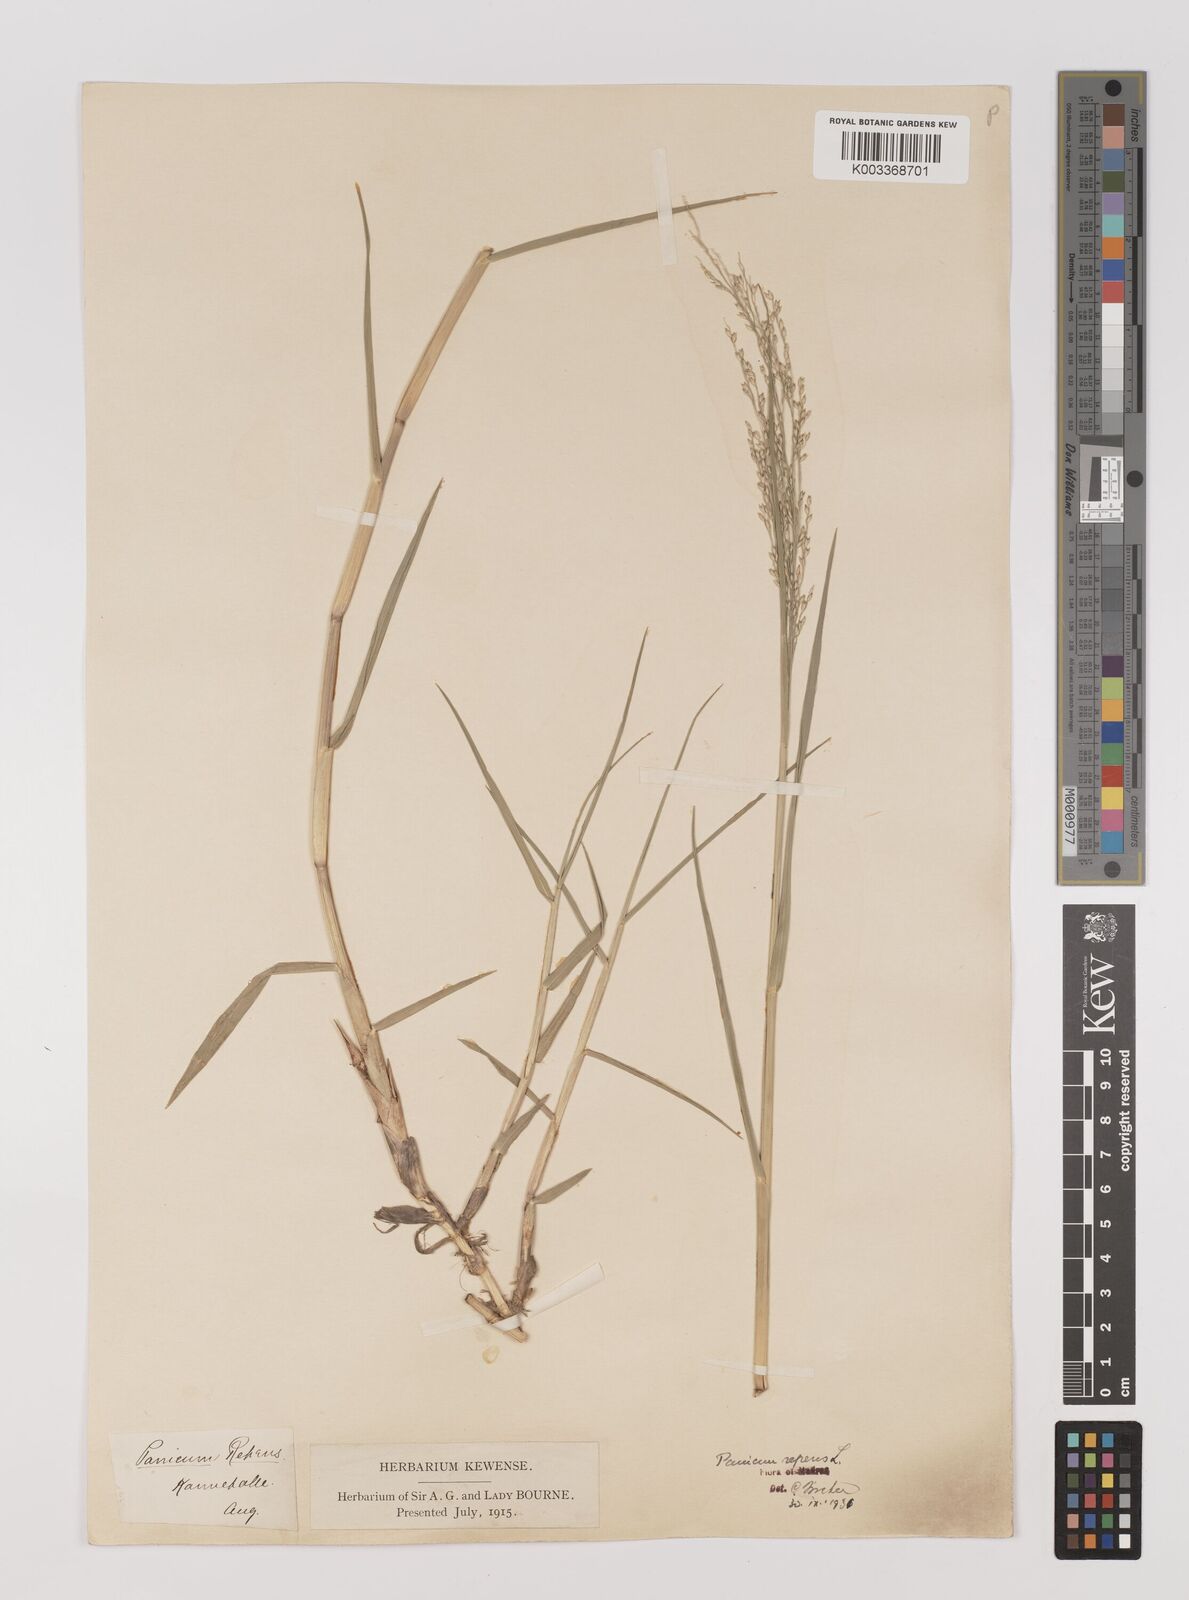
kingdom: Plantae
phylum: Tracheophyta
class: Liliopsida
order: Poales
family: Poaceae
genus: Panicum
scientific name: Panicum repens
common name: Torpedo grass
